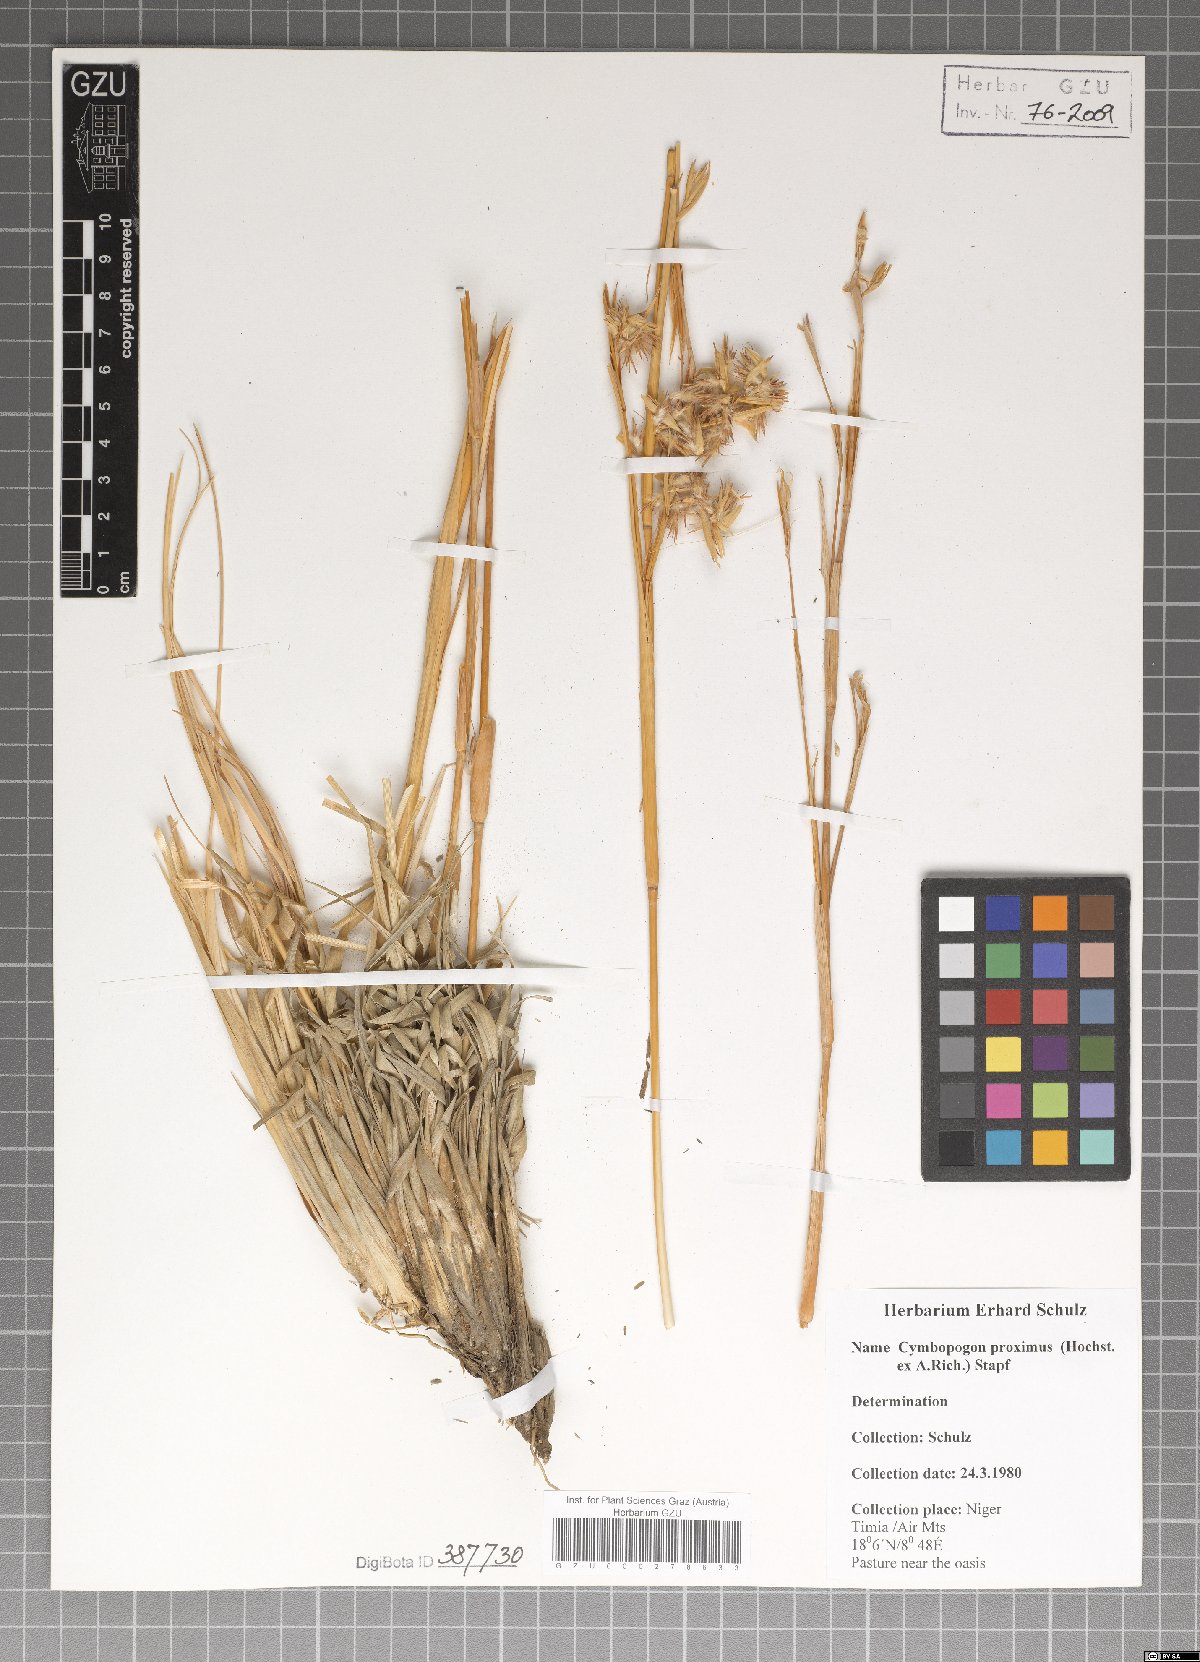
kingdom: Plantae
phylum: Tracheophyta
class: Liliopsida
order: Poales
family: Poaceae
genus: Cymbopogon
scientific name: Cymbopogon schoenanthus
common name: Geranium grass
